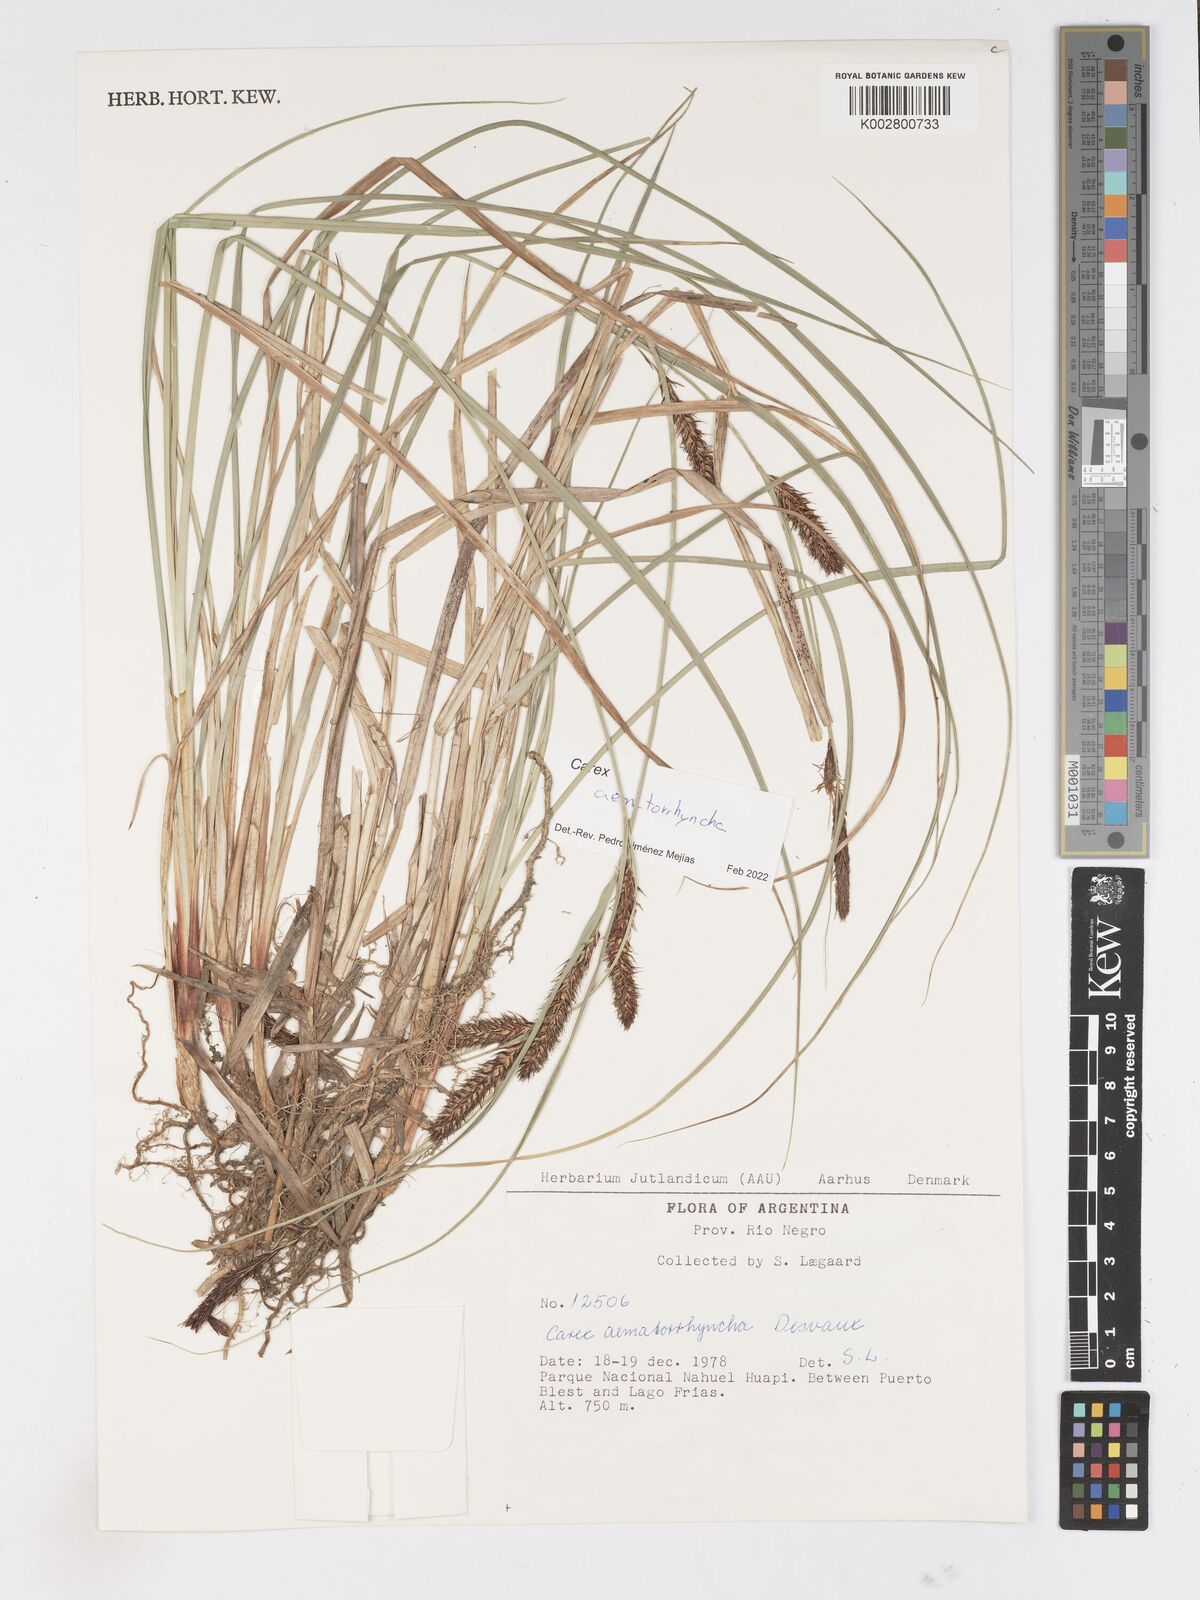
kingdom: Plantae
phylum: Tracheophyta
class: Liliopsida
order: Poales
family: Cyperaceae
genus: Carex
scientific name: Carex aematorhyncha
